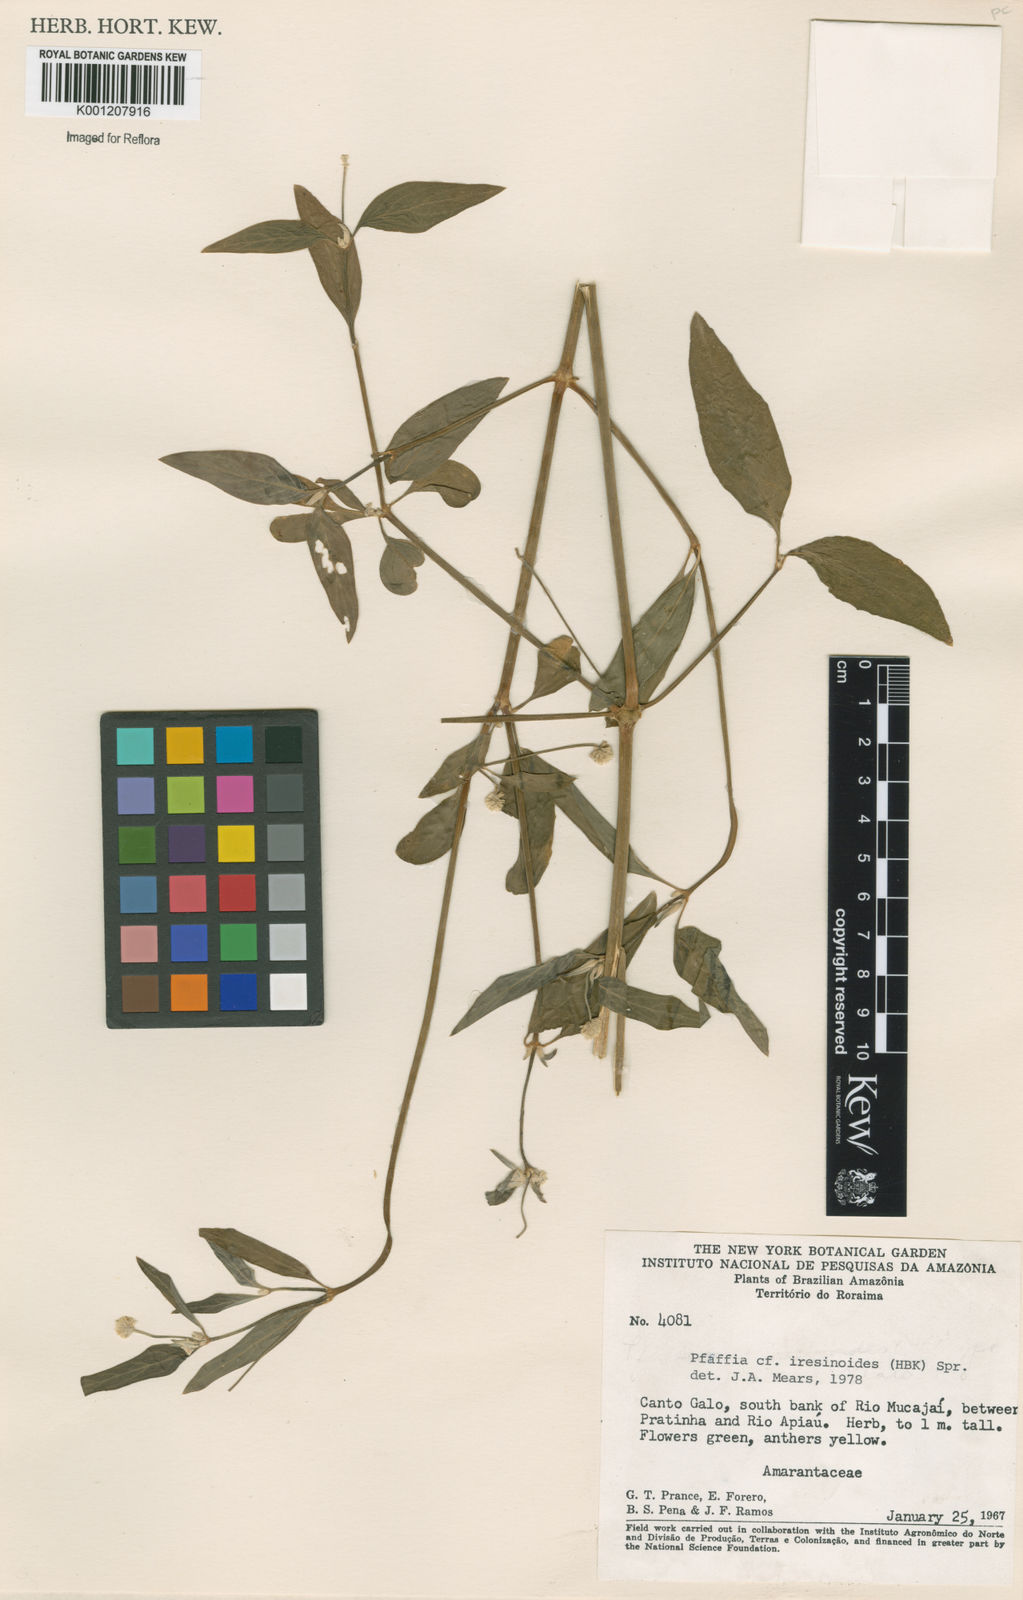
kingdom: Plantae
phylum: Tracheophyta
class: Magnoliopsida
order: Caryophyllales
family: Amaranthaceae
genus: Pfaffia
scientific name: Pfaffia iresinoides
